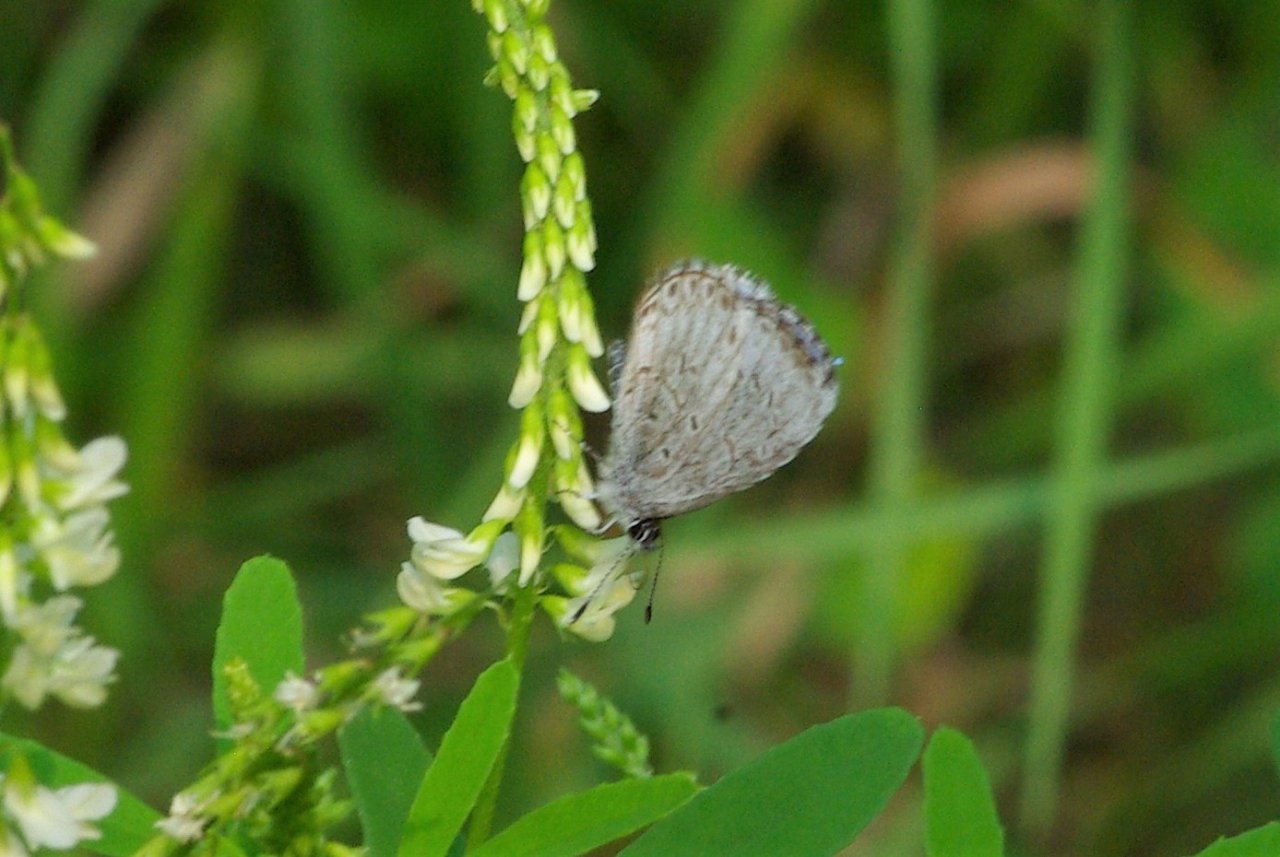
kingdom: Animalia
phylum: Arthropoda
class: Insecta
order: Lepidoptera
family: Lycaenidae
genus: Celastrina
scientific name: Celastrina lucia
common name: Northern Spring Azure
